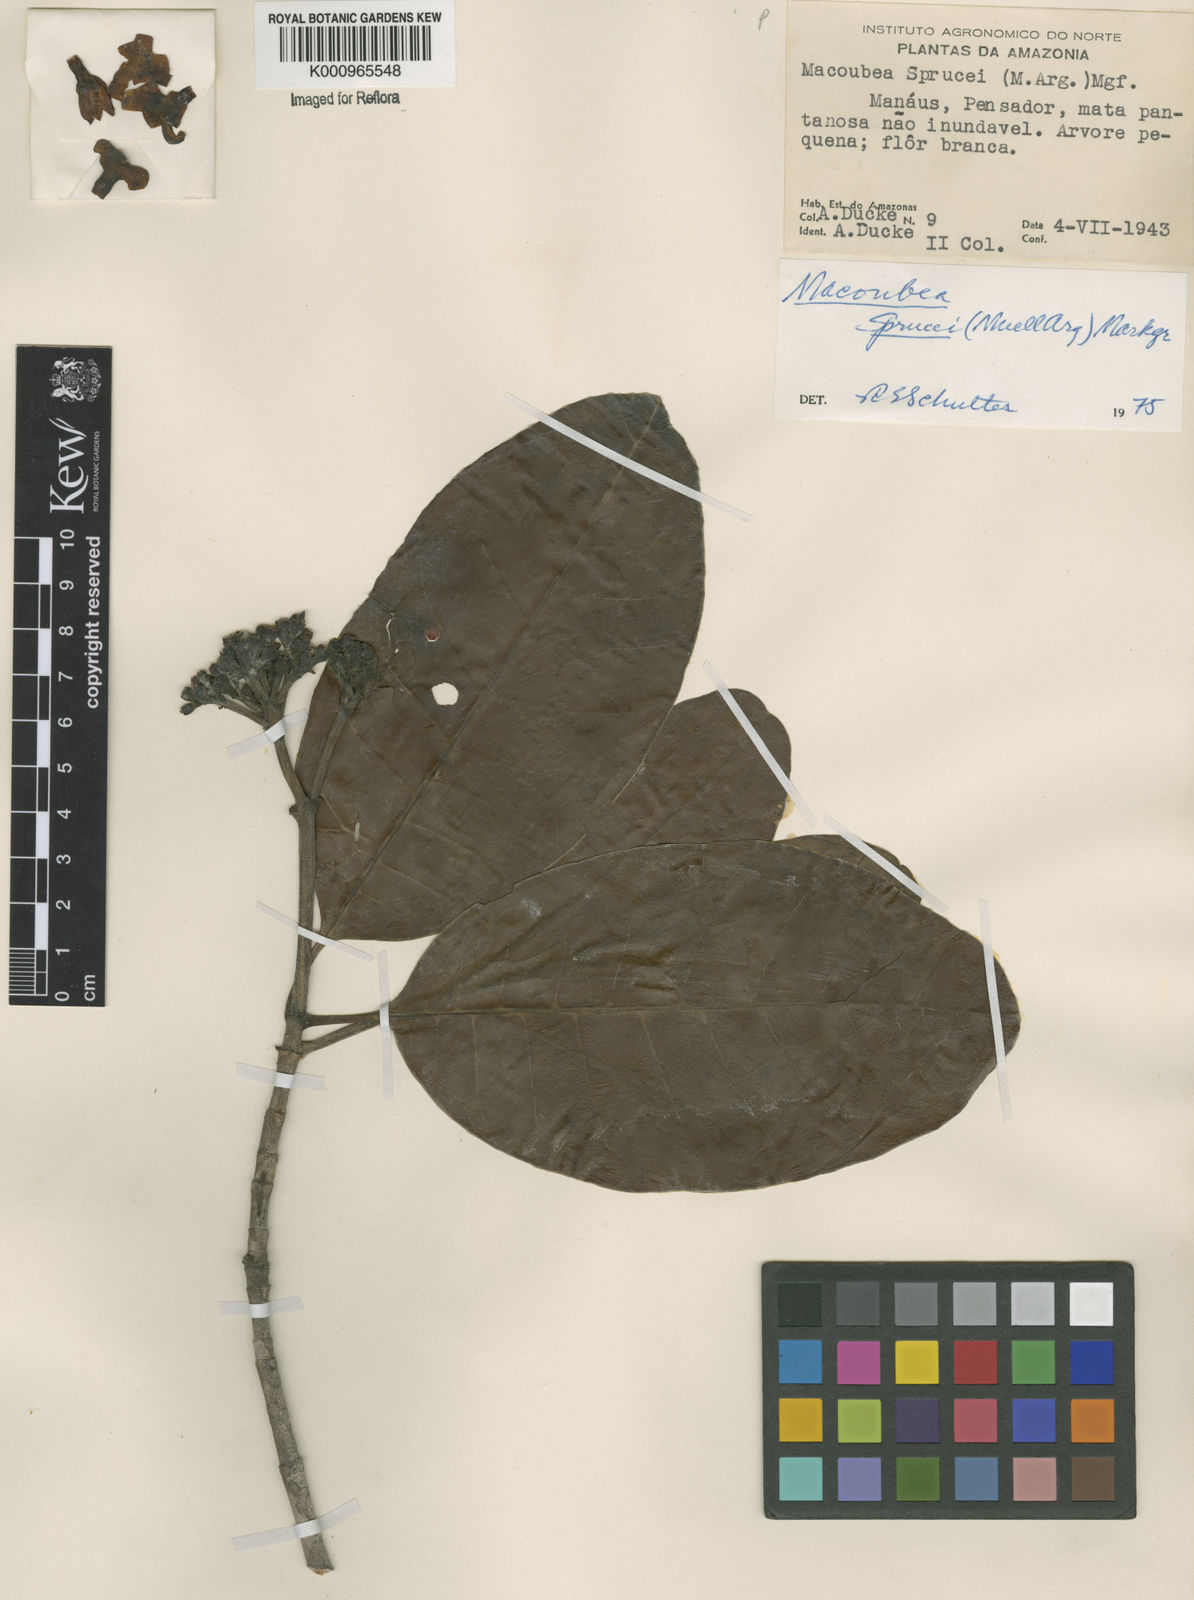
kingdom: Plantae
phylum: Tracheophyta
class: Magnoliopsida
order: Gentianales
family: Apocynaceae
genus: Macoubea
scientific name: Macoubea
